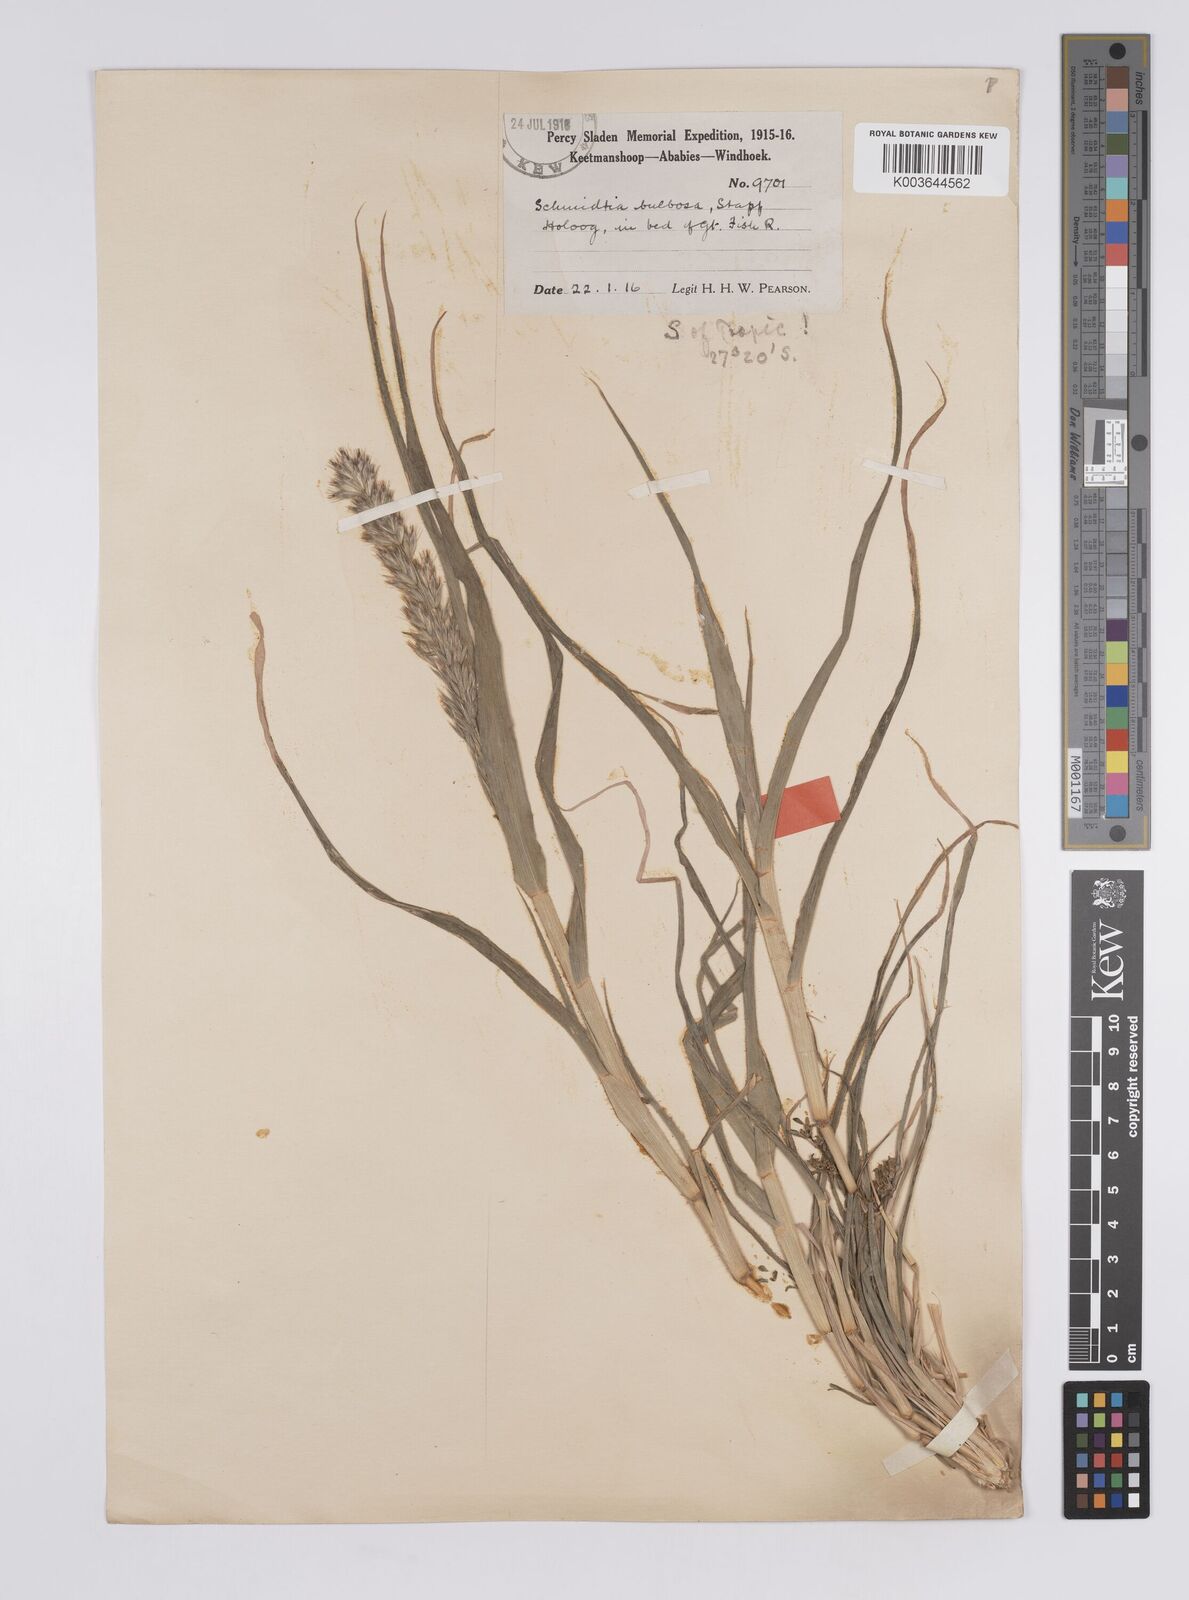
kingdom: Plantae
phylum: Tracheophyta
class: Liliopsida
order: Poales
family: Poaceae
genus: Schmidtia
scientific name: Schmidtia kalahariensis
